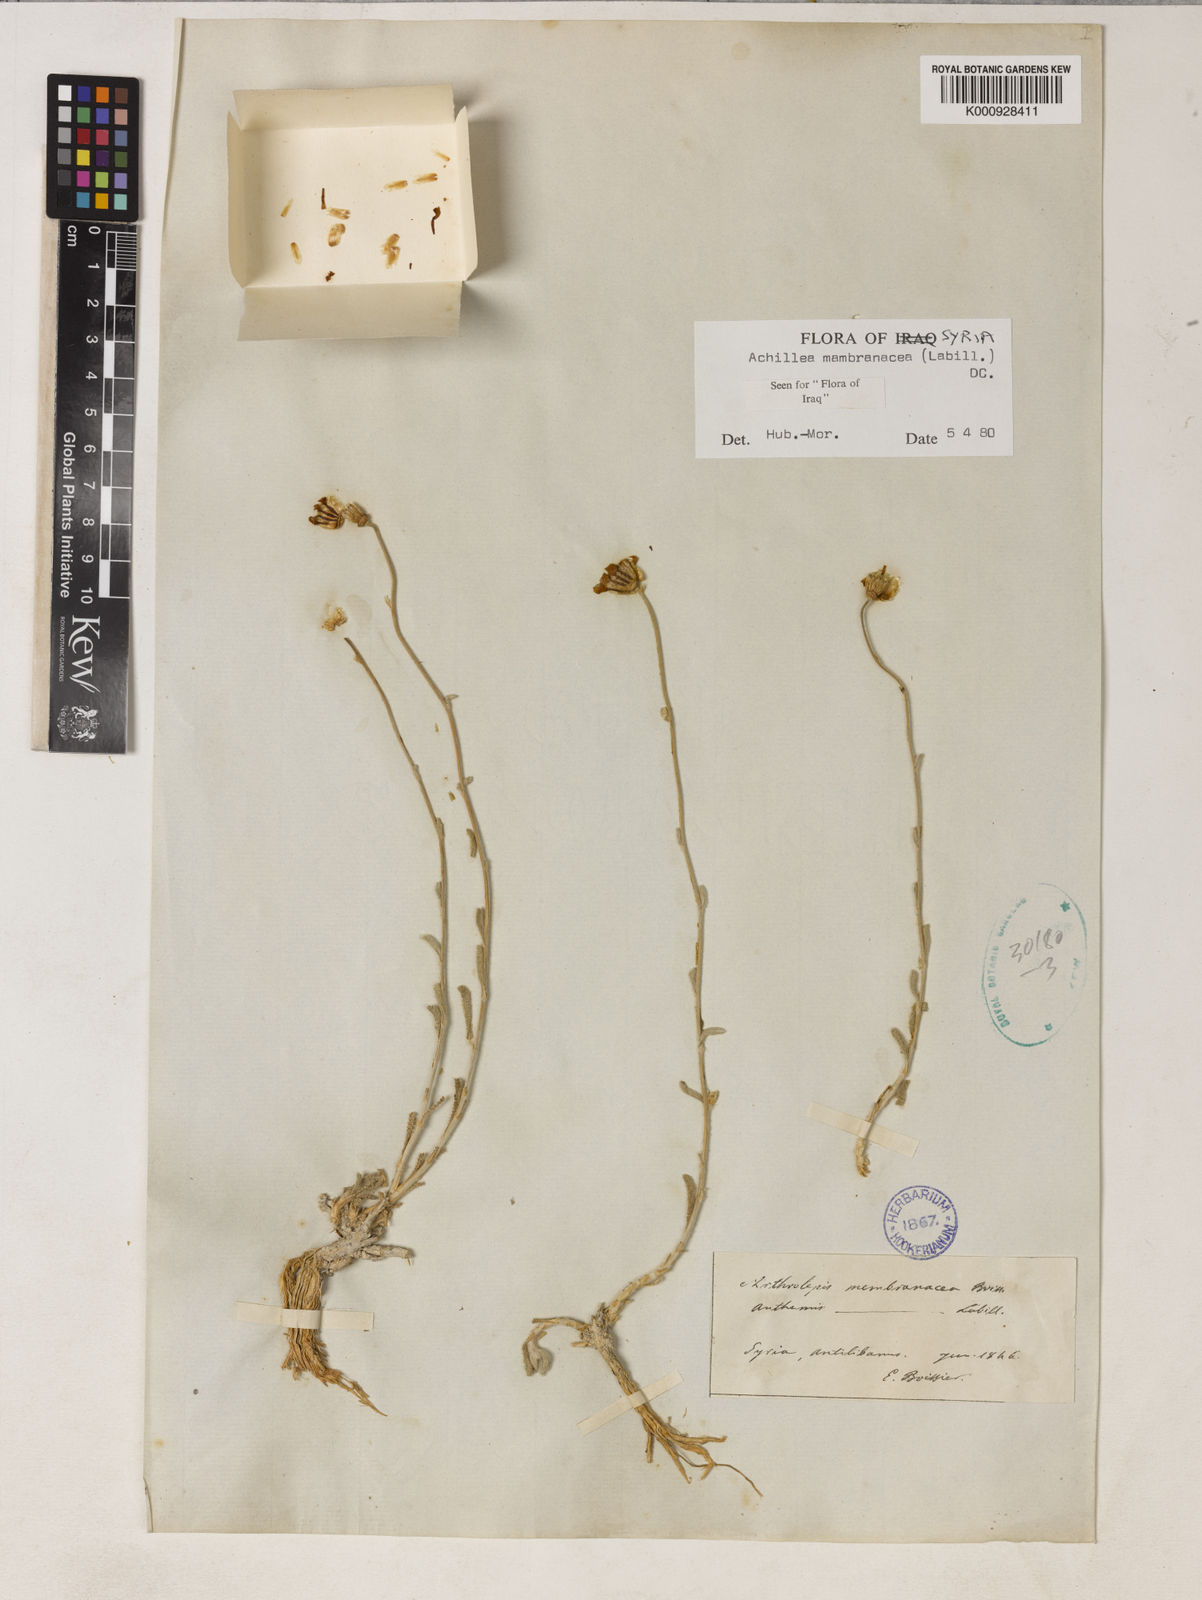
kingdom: Plantae
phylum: Tracheophyta
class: Magnoliopsida
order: Asterales
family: Asteraceae
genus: Achillea
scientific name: Achillea membranacea
